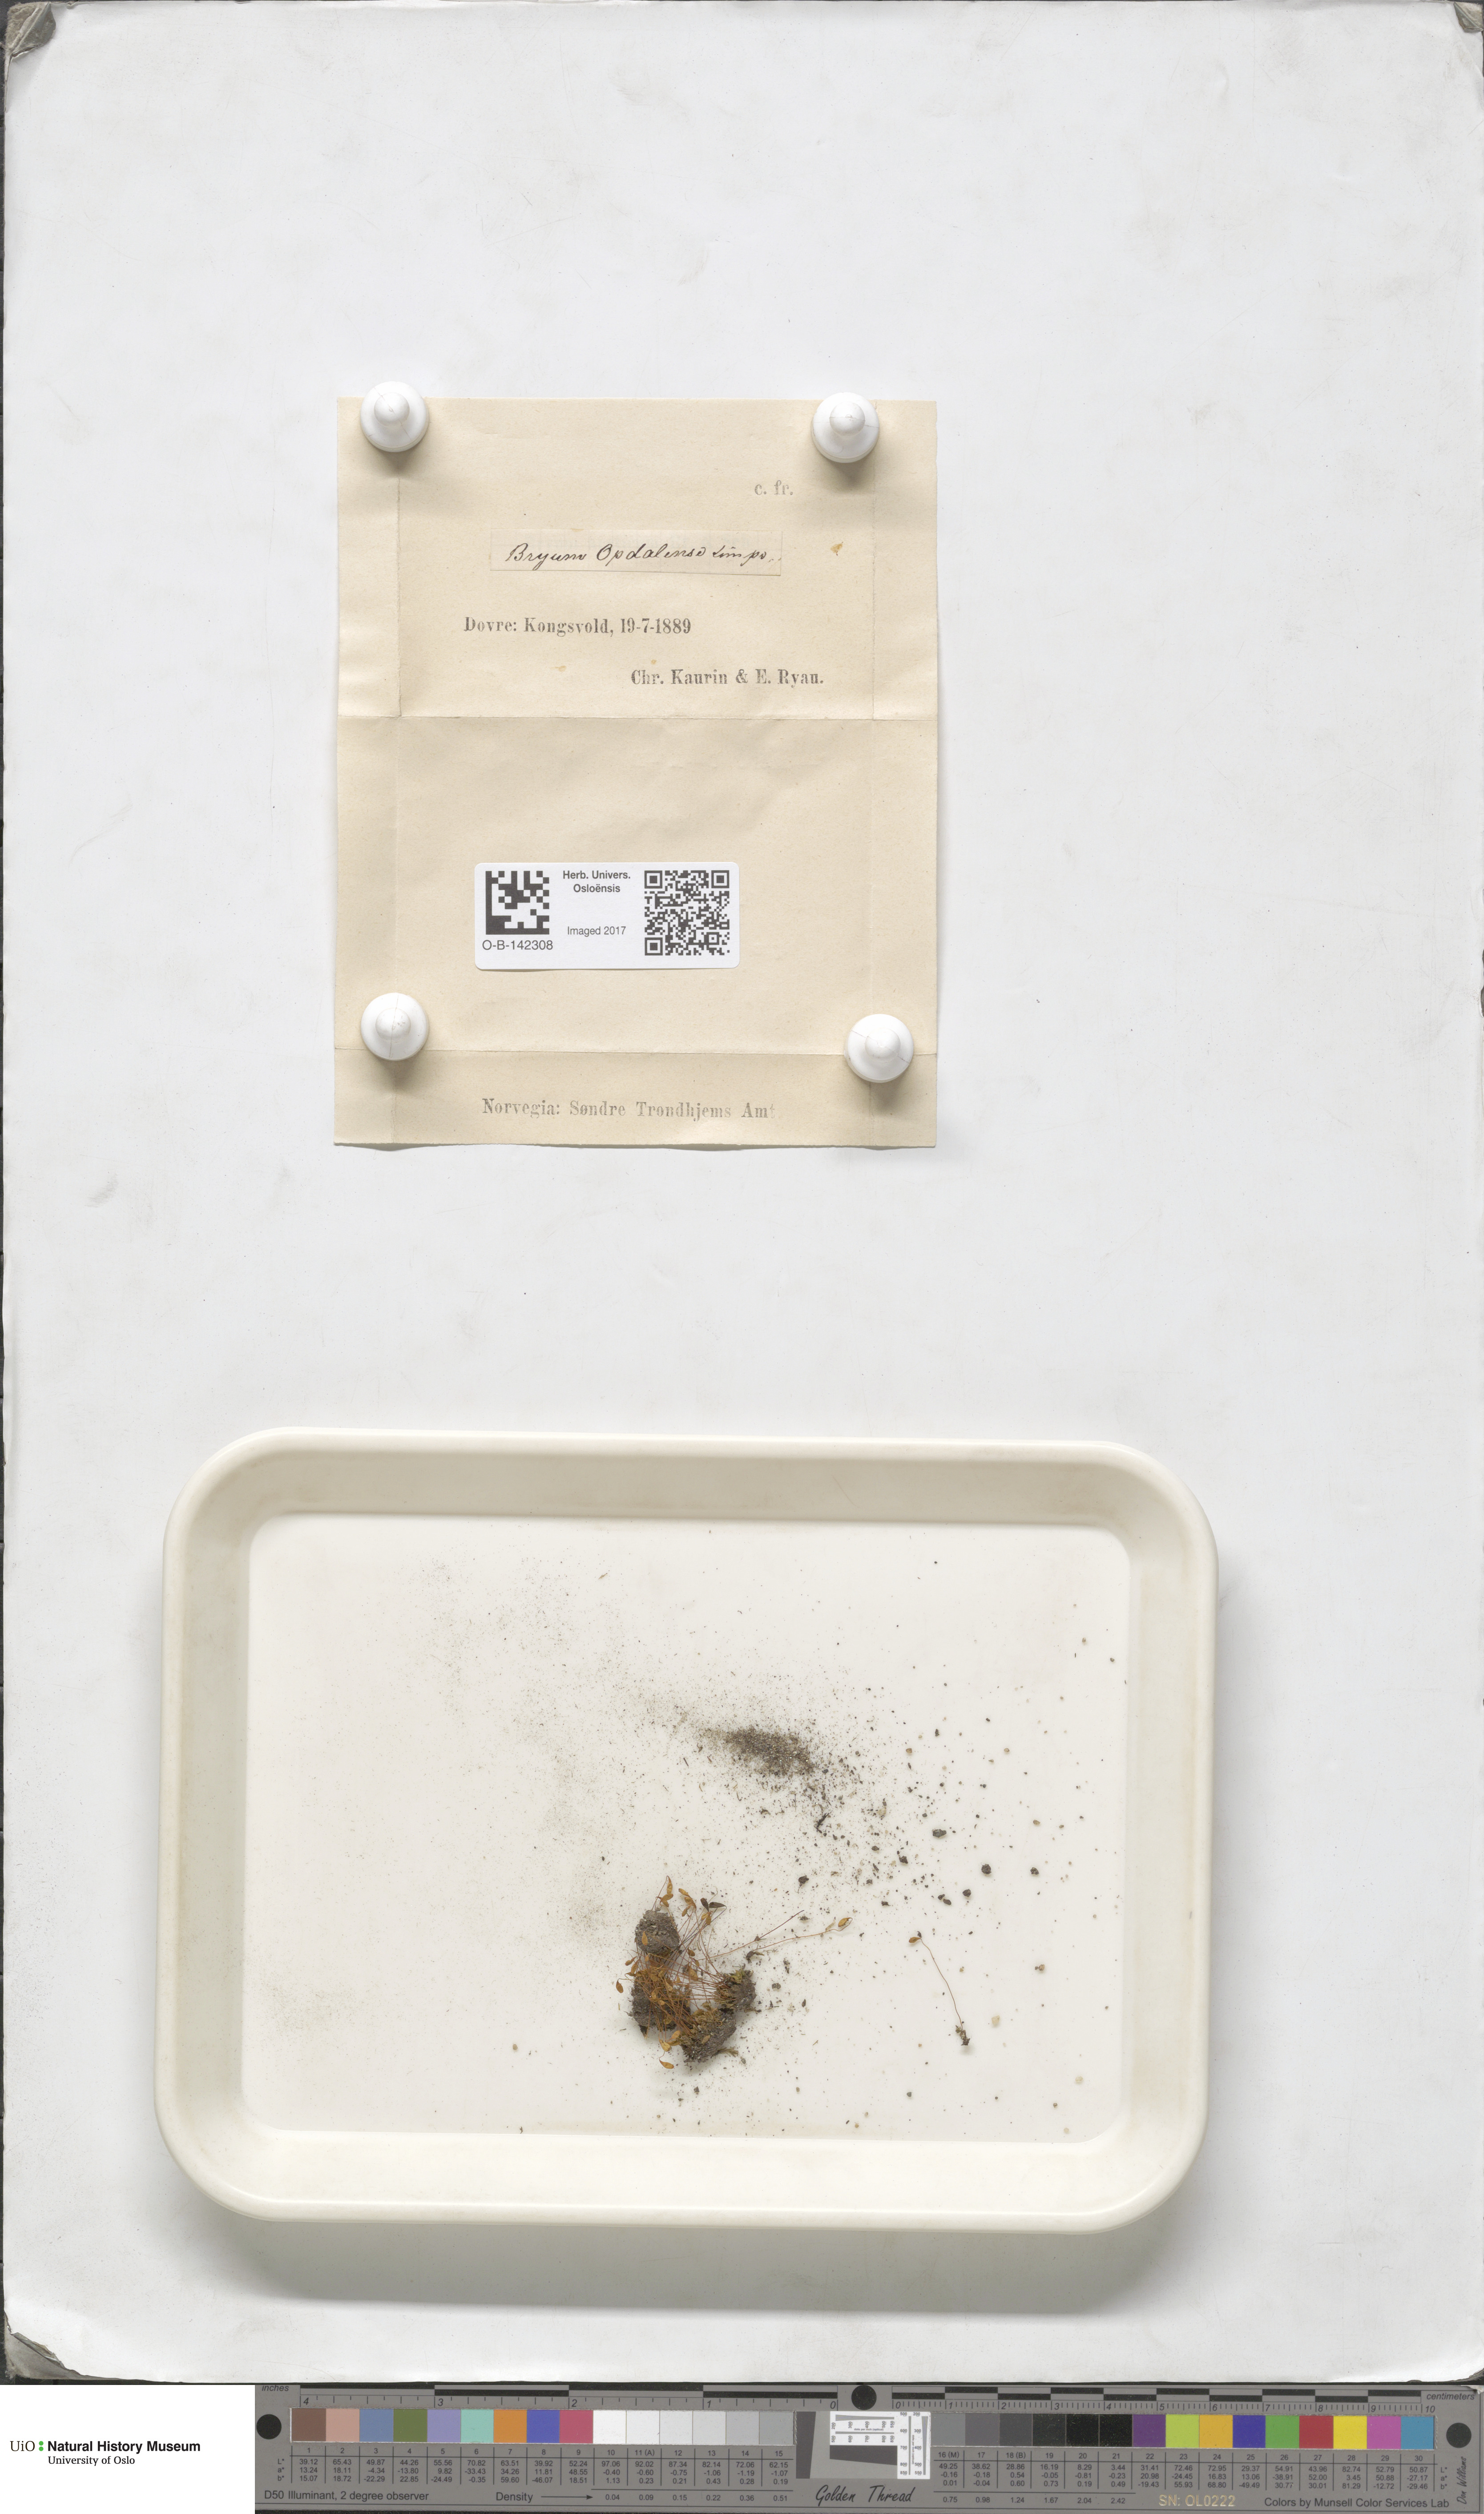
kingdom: Plantae
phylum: Bryophyta
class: Bryopsida
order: Bryales
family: Bryaceae
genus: Ptychostomum
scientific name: Ptychostomum arcticum
